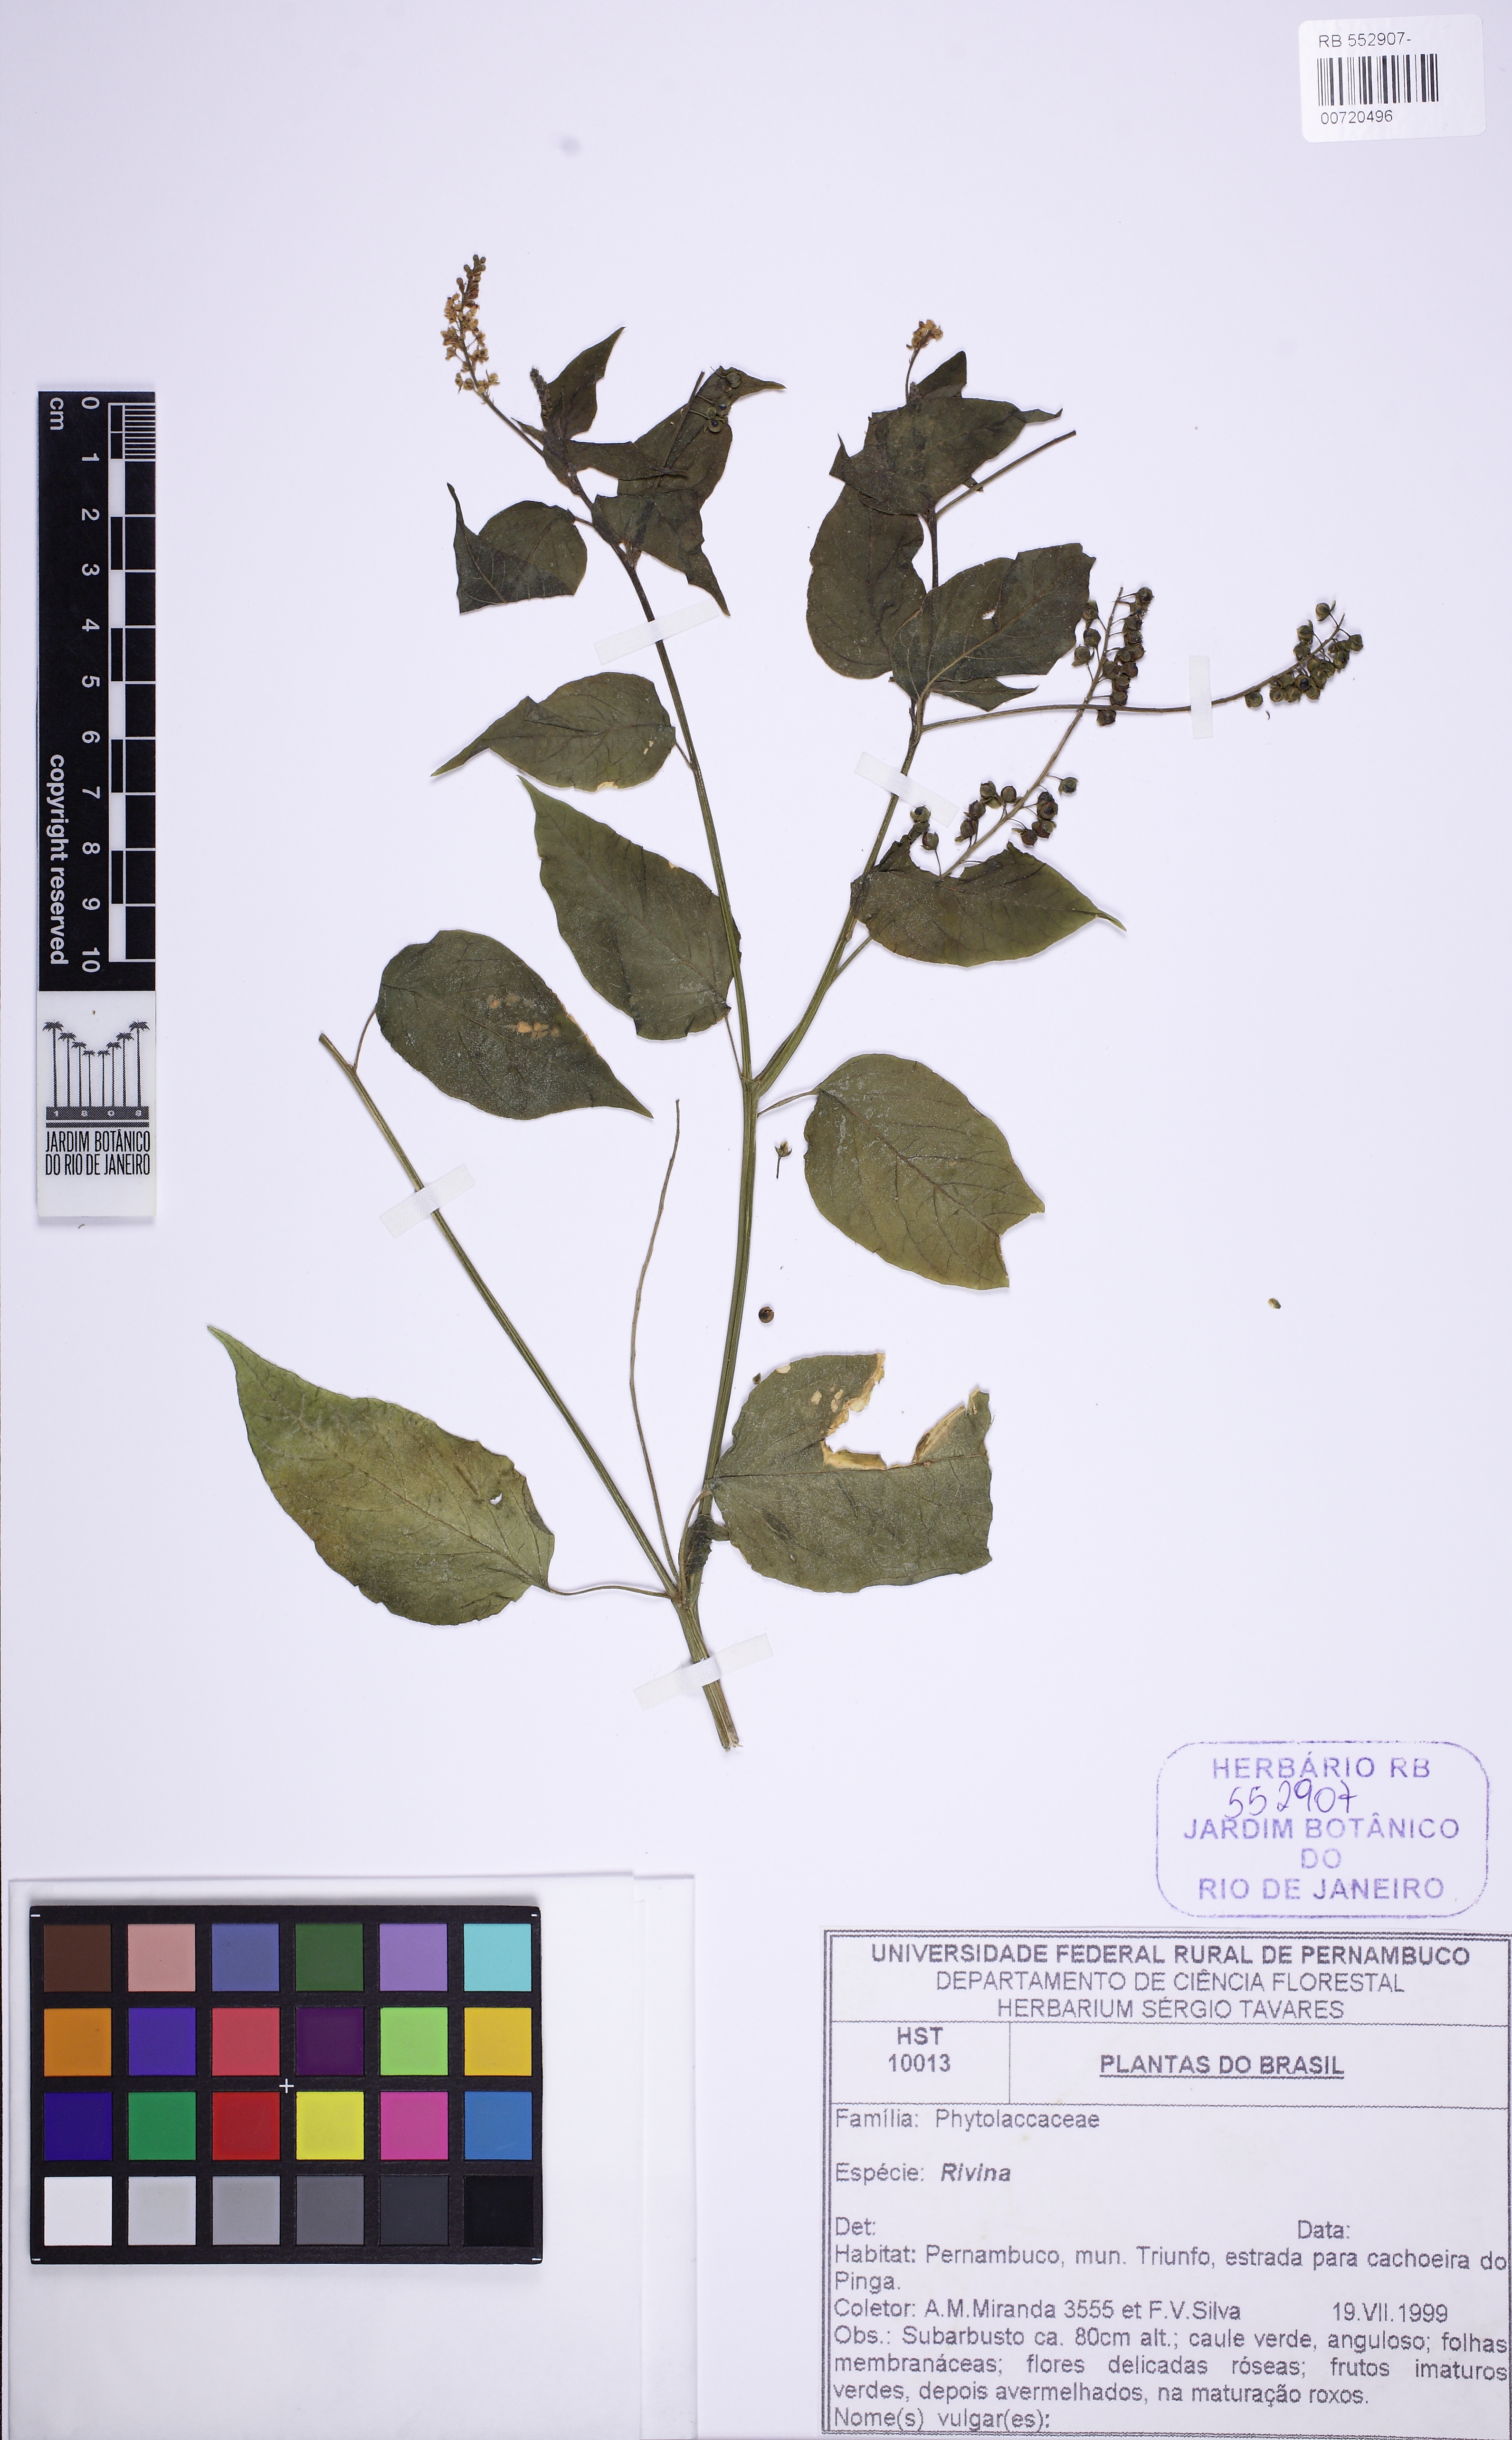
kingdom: Plantae
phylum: Tracheophyta
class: Magnoliopsida
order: Caryophyllales
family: Phytolaccaceae
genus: Rivina
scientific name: Rivina
